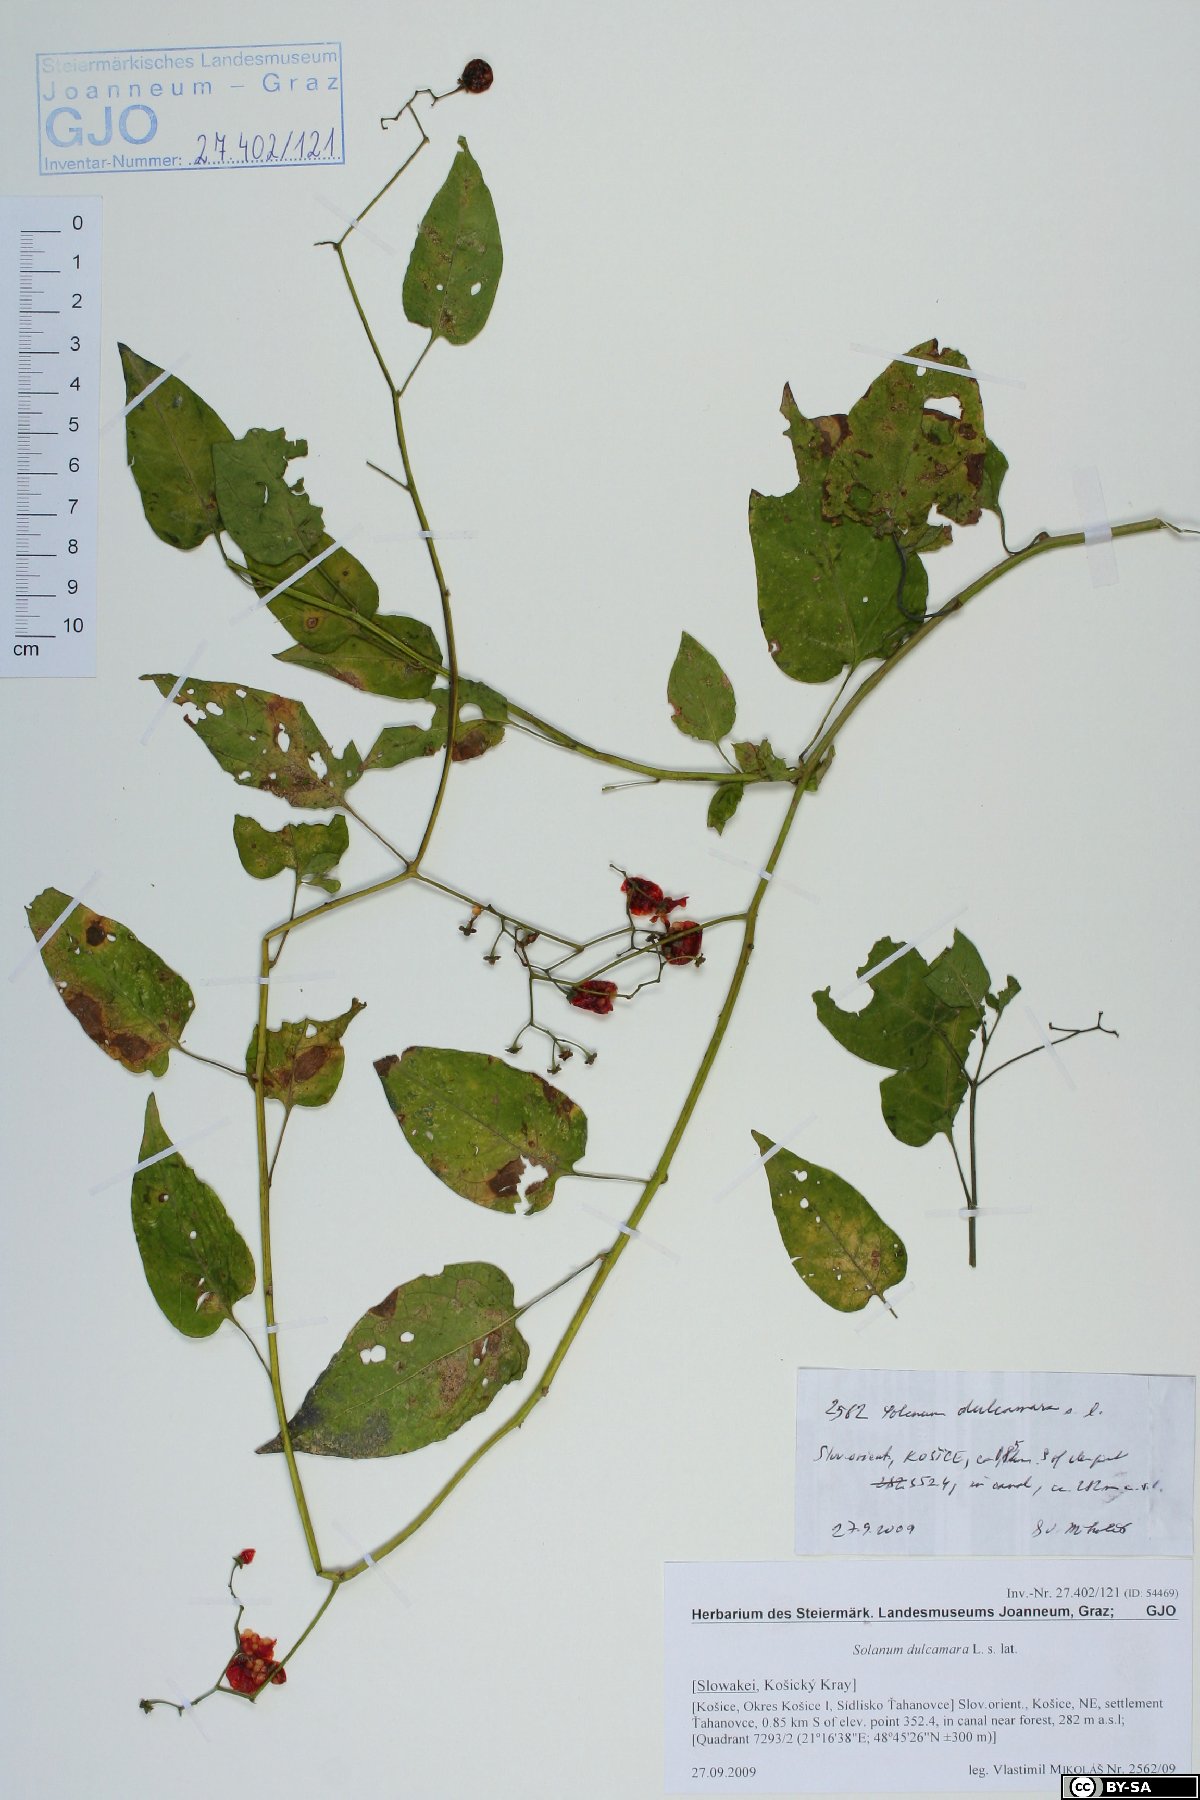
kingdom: Plantae
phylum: Tracheophyta
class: Magnoliopsida
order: Solanales
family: Solanaceae
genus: Solanum
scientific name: Solanum dulcamara
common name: Climbing nightshade
